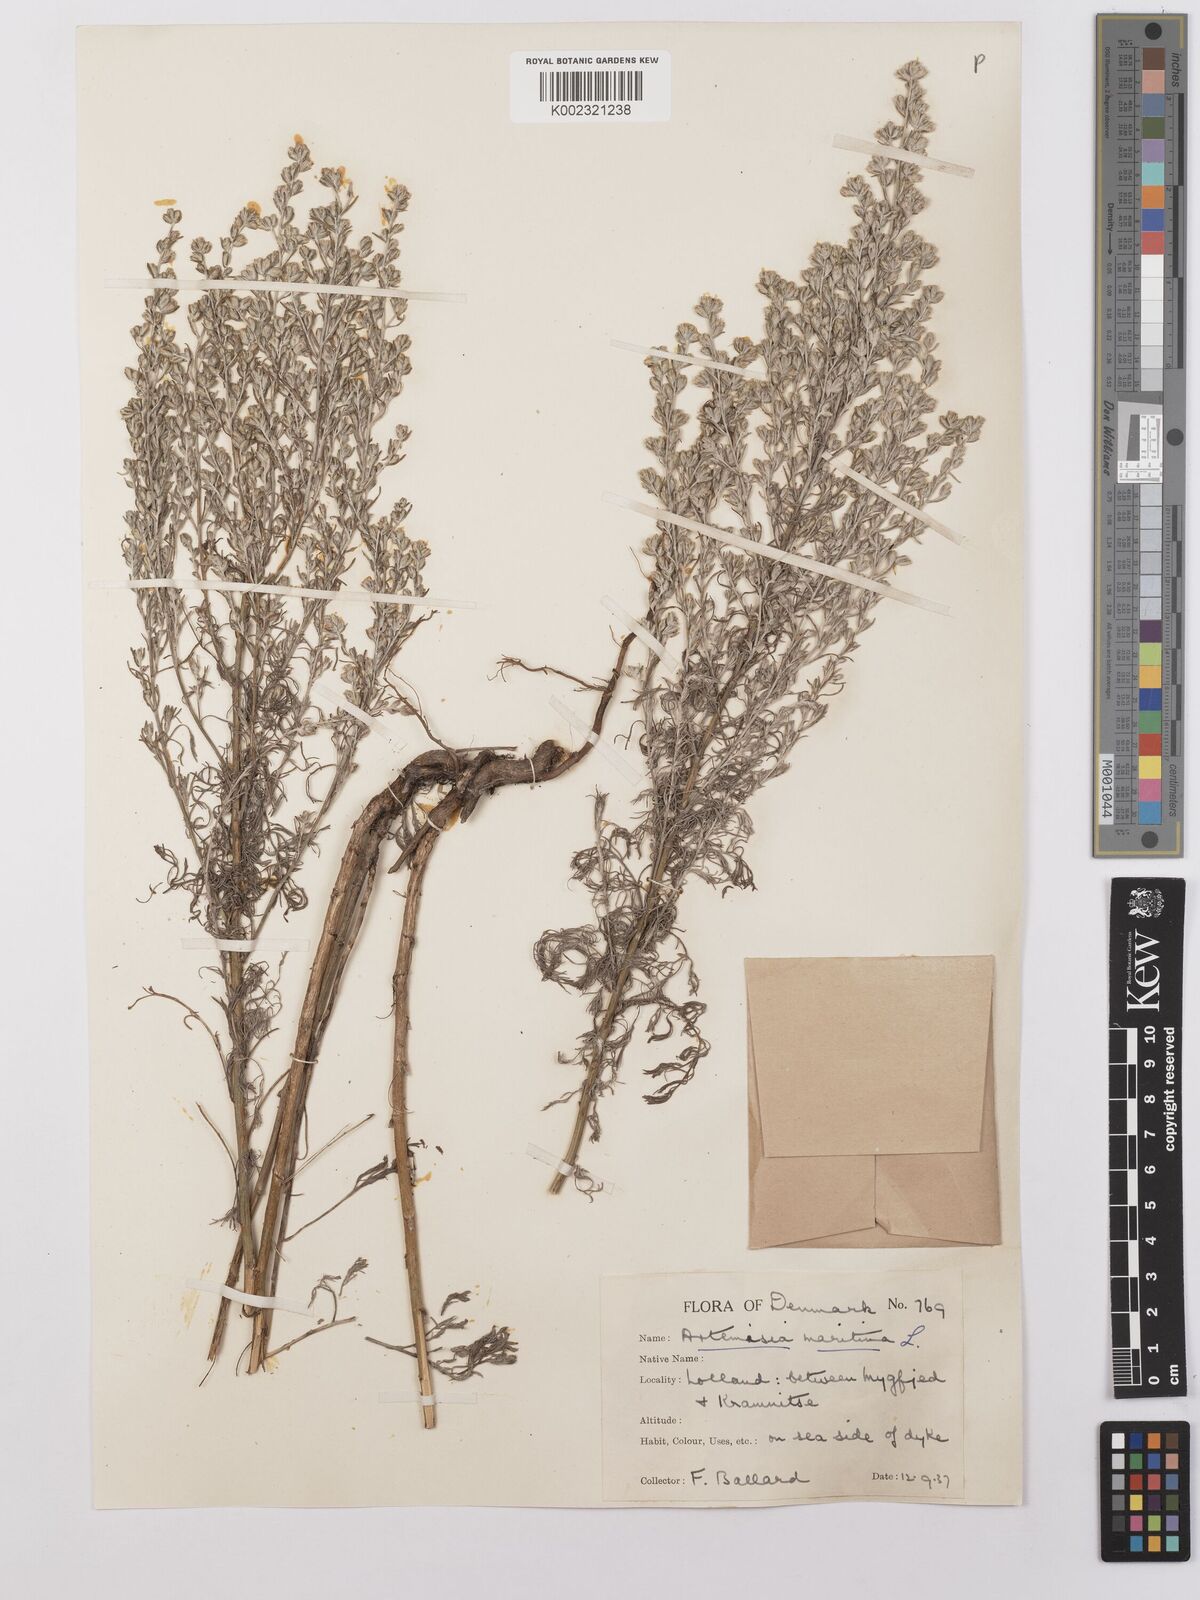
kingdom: Plantae
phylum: Tracheophyta
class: Magnoliopsida
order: Asterales
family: Asteraceae
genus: Artemisia
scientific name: Artemisia maritima
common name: Wormseed
